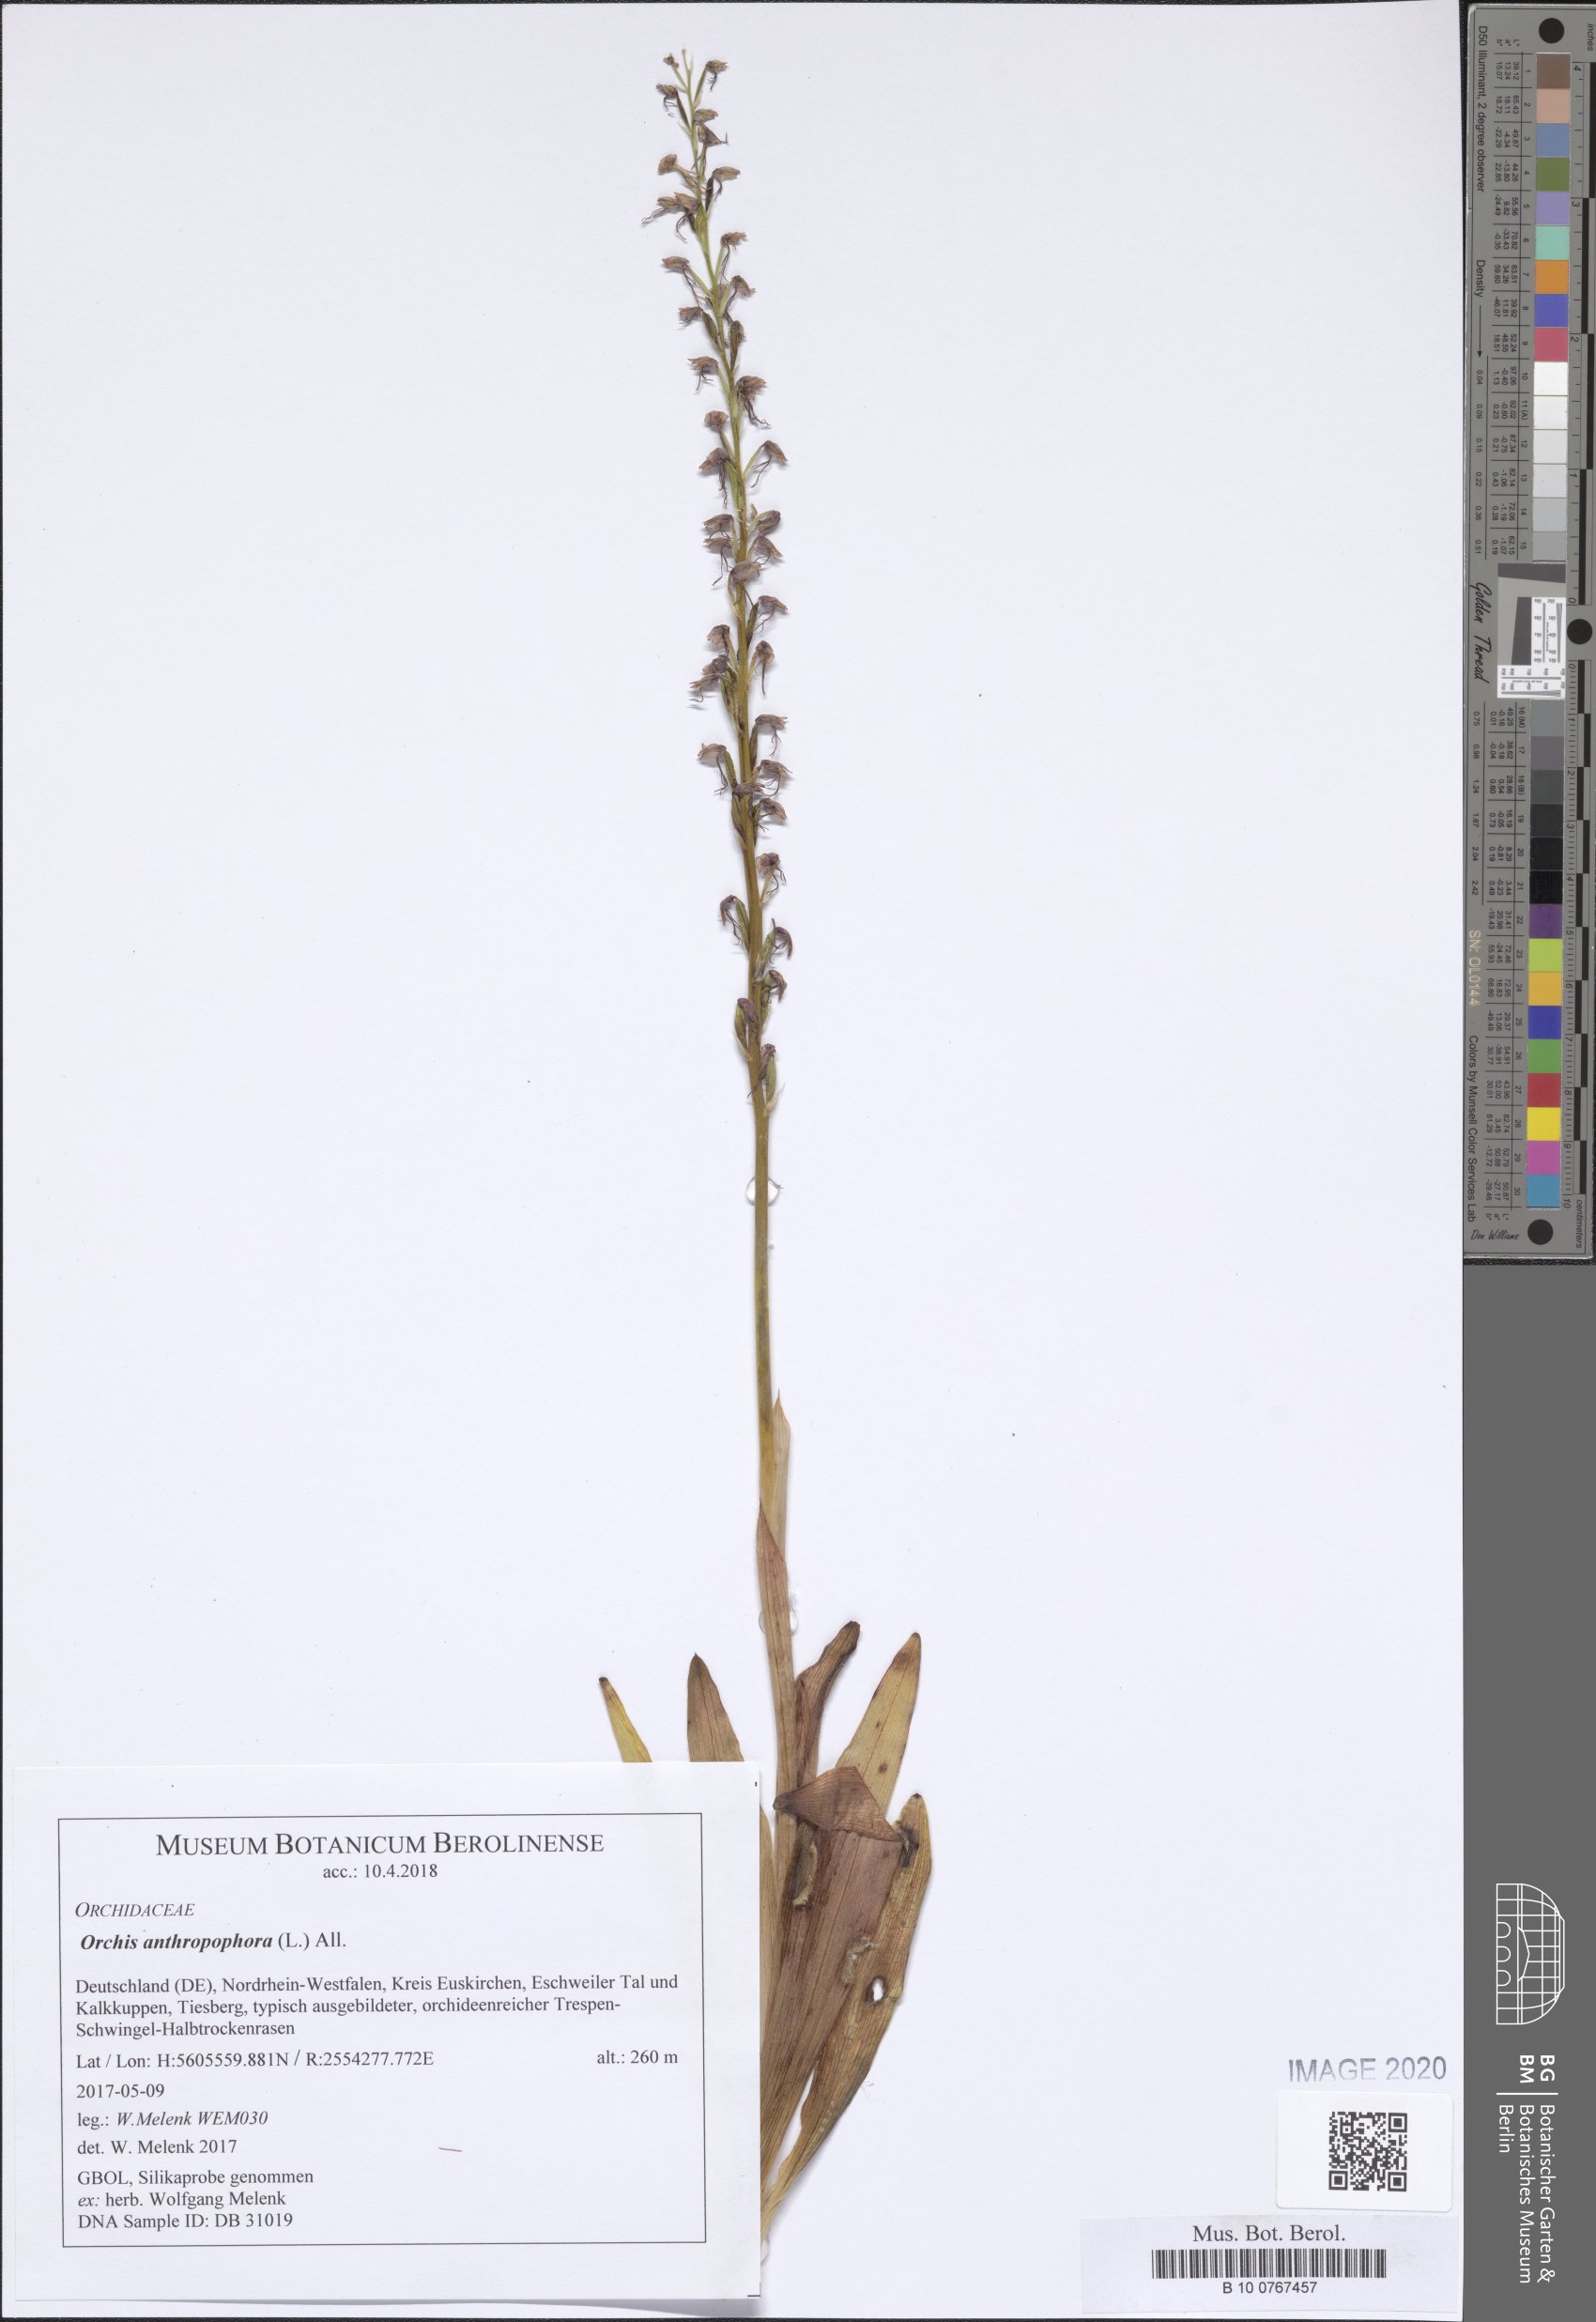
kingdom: Plantae
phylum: Tracheophyta
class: Liliopsida
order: Asparagales
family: Orchidaceae
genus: Orchis
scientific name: Orchis anthropophora
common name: Man orchid
